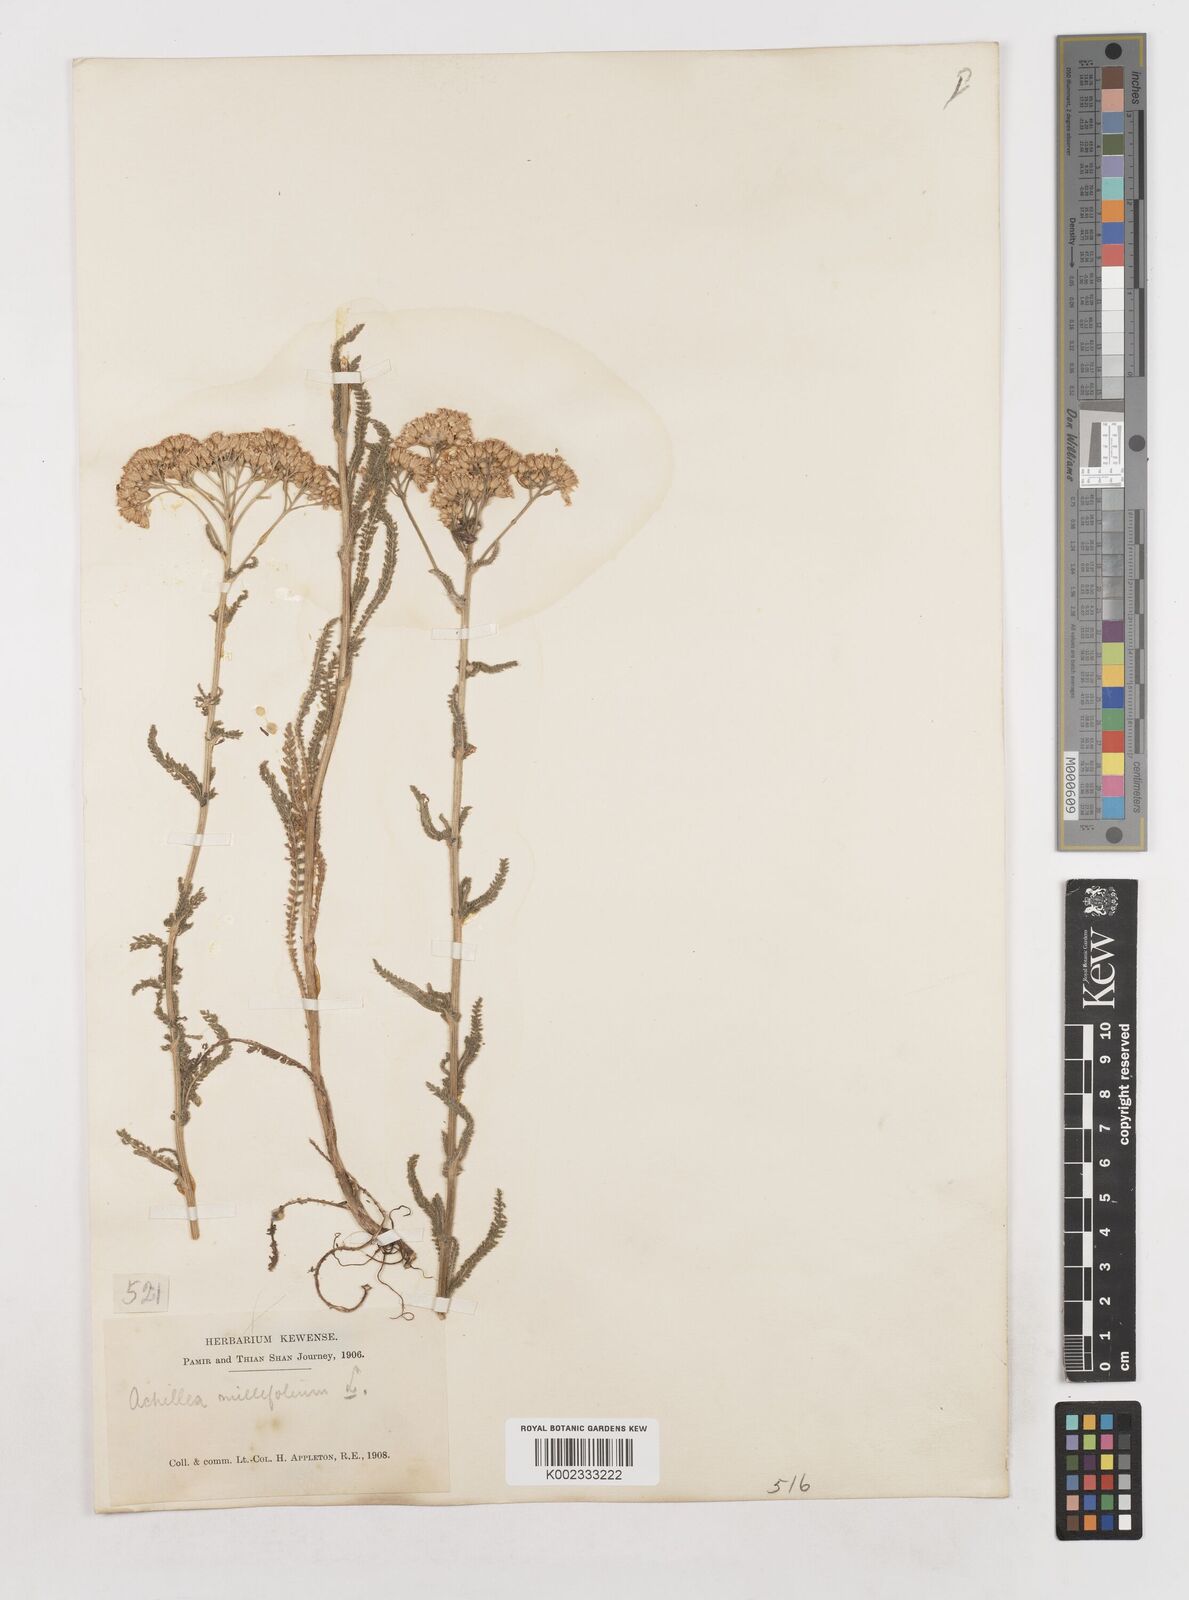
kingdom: Plantae
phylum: Tracheophyta
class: Magnoliopsida
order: Asterales
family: Asteraceae
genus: Achillea
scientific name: Achillea millefolium
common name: Yarrow
